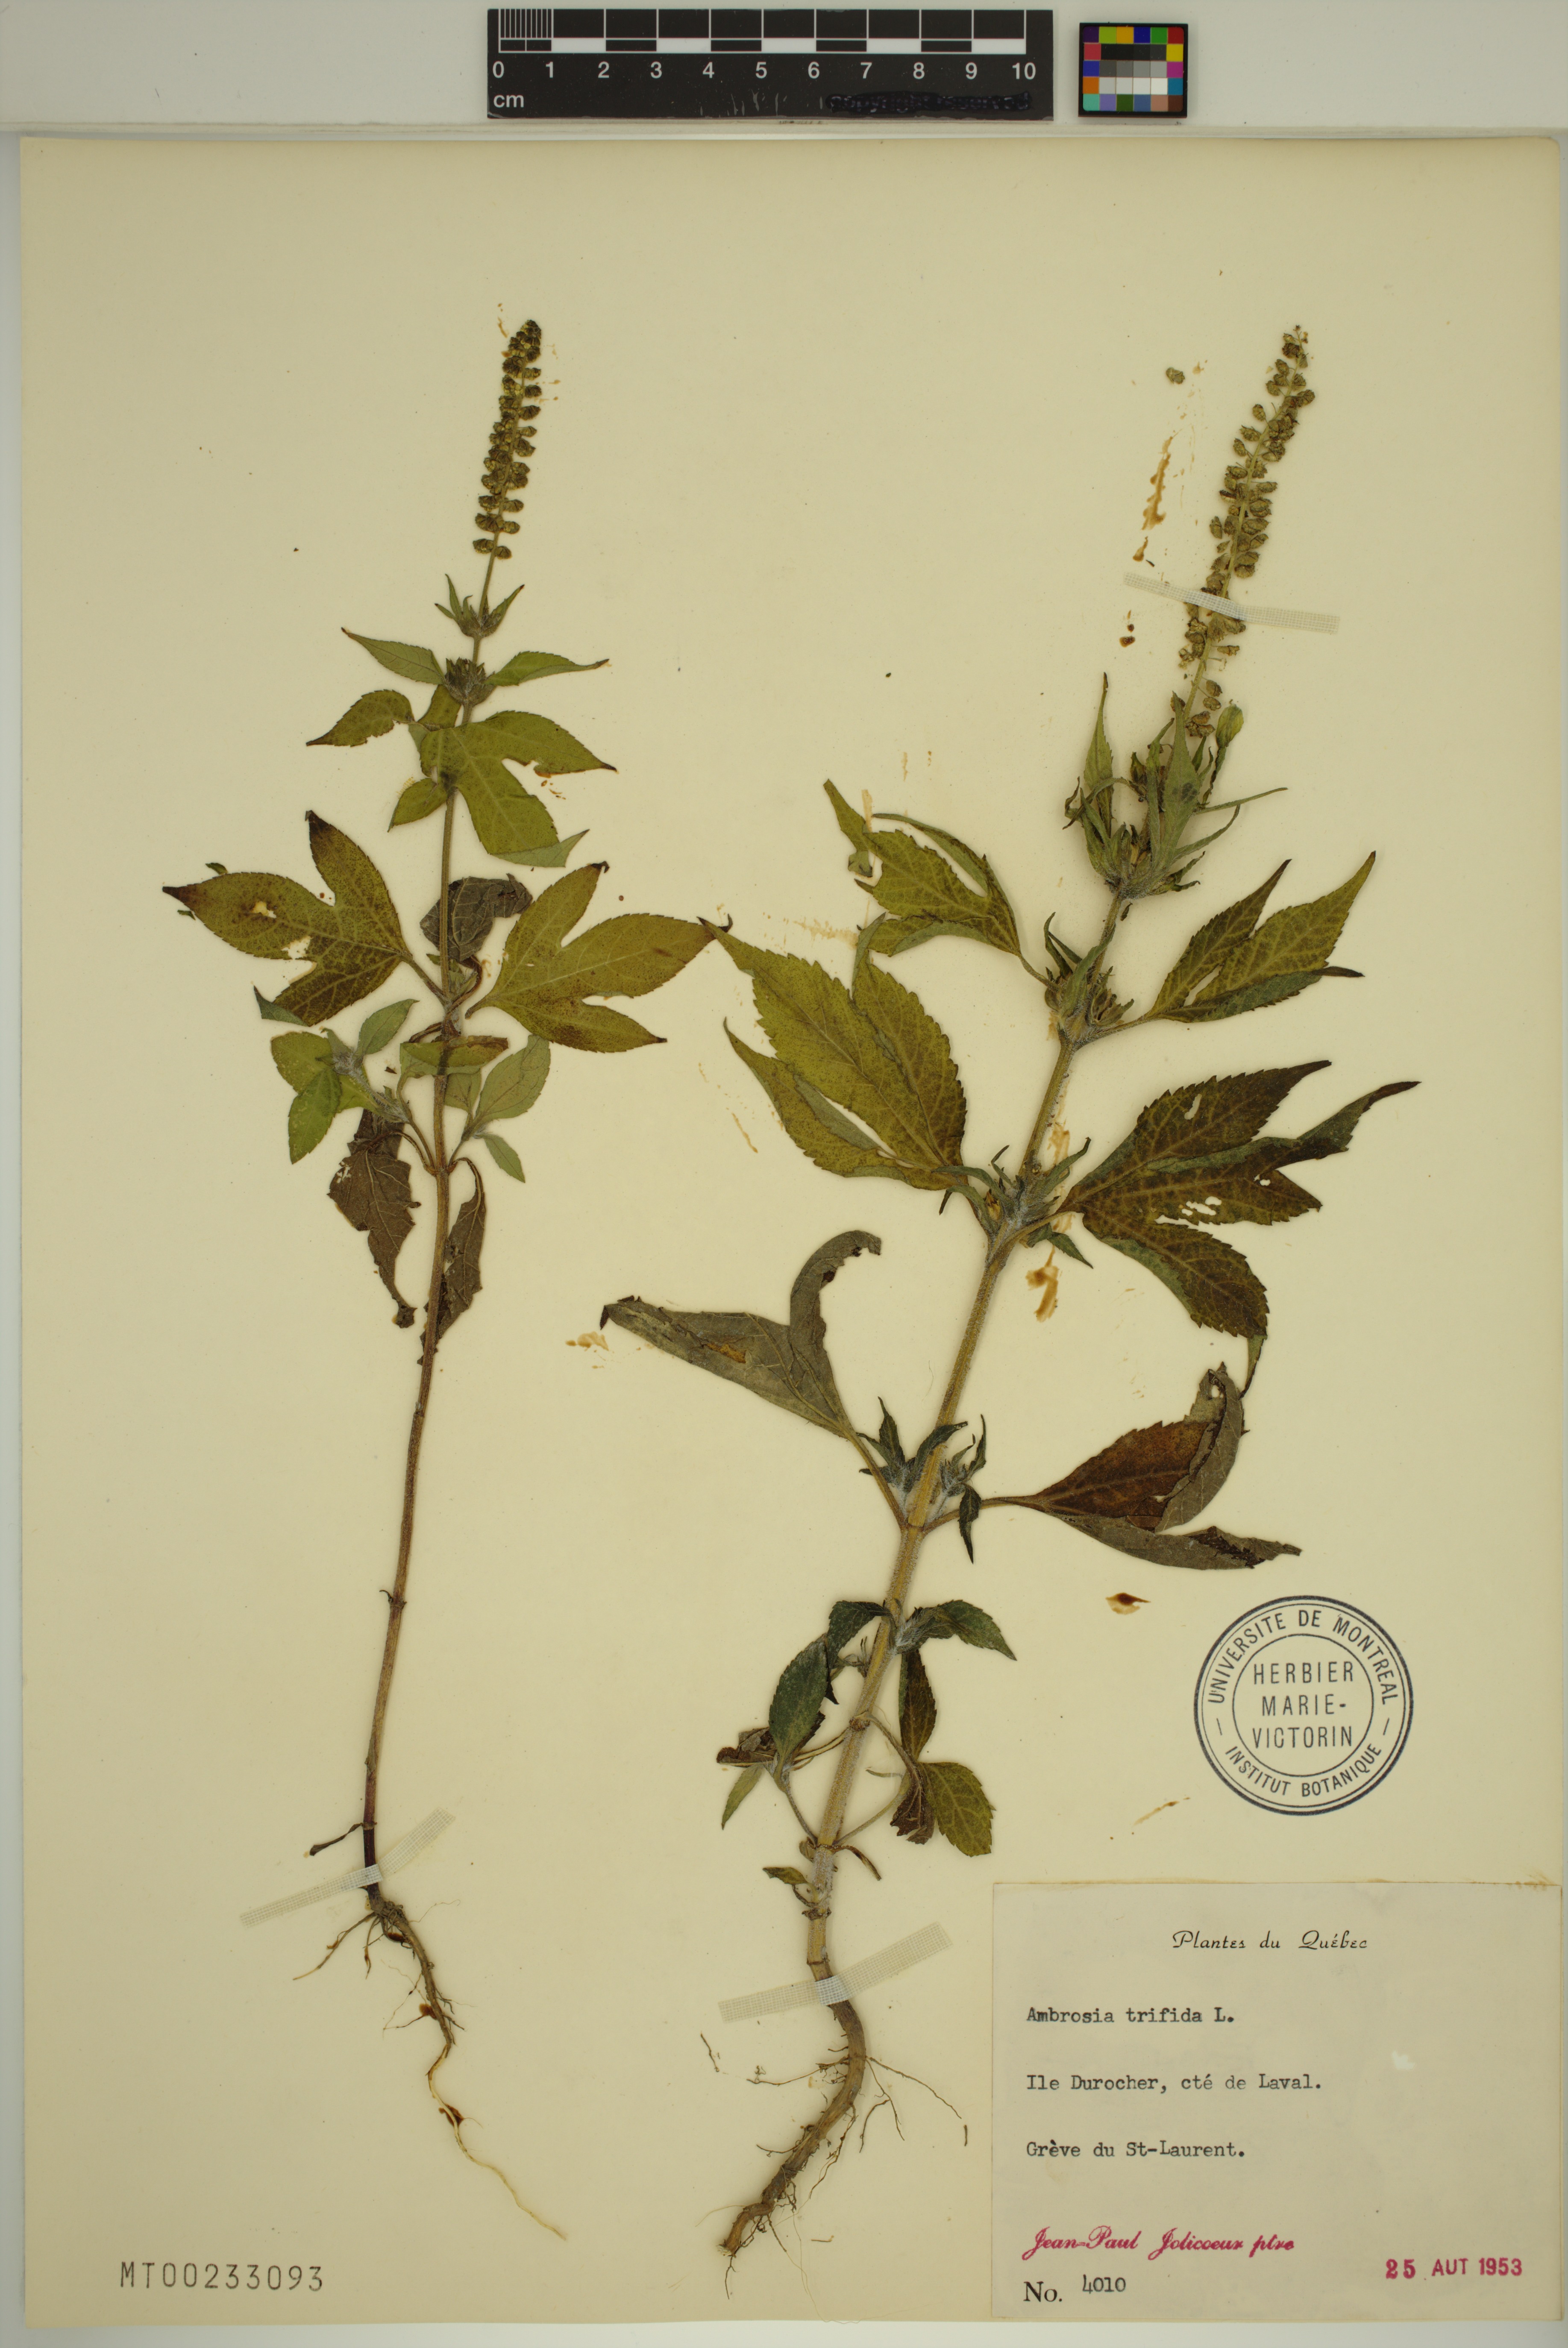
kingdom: Plantae
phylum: Tracheophyta
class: Magnoliopsida
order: Asterales
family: Asteraceae
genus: Ambrosia
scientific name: Ambrosia trifida
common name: Giant ragweed
